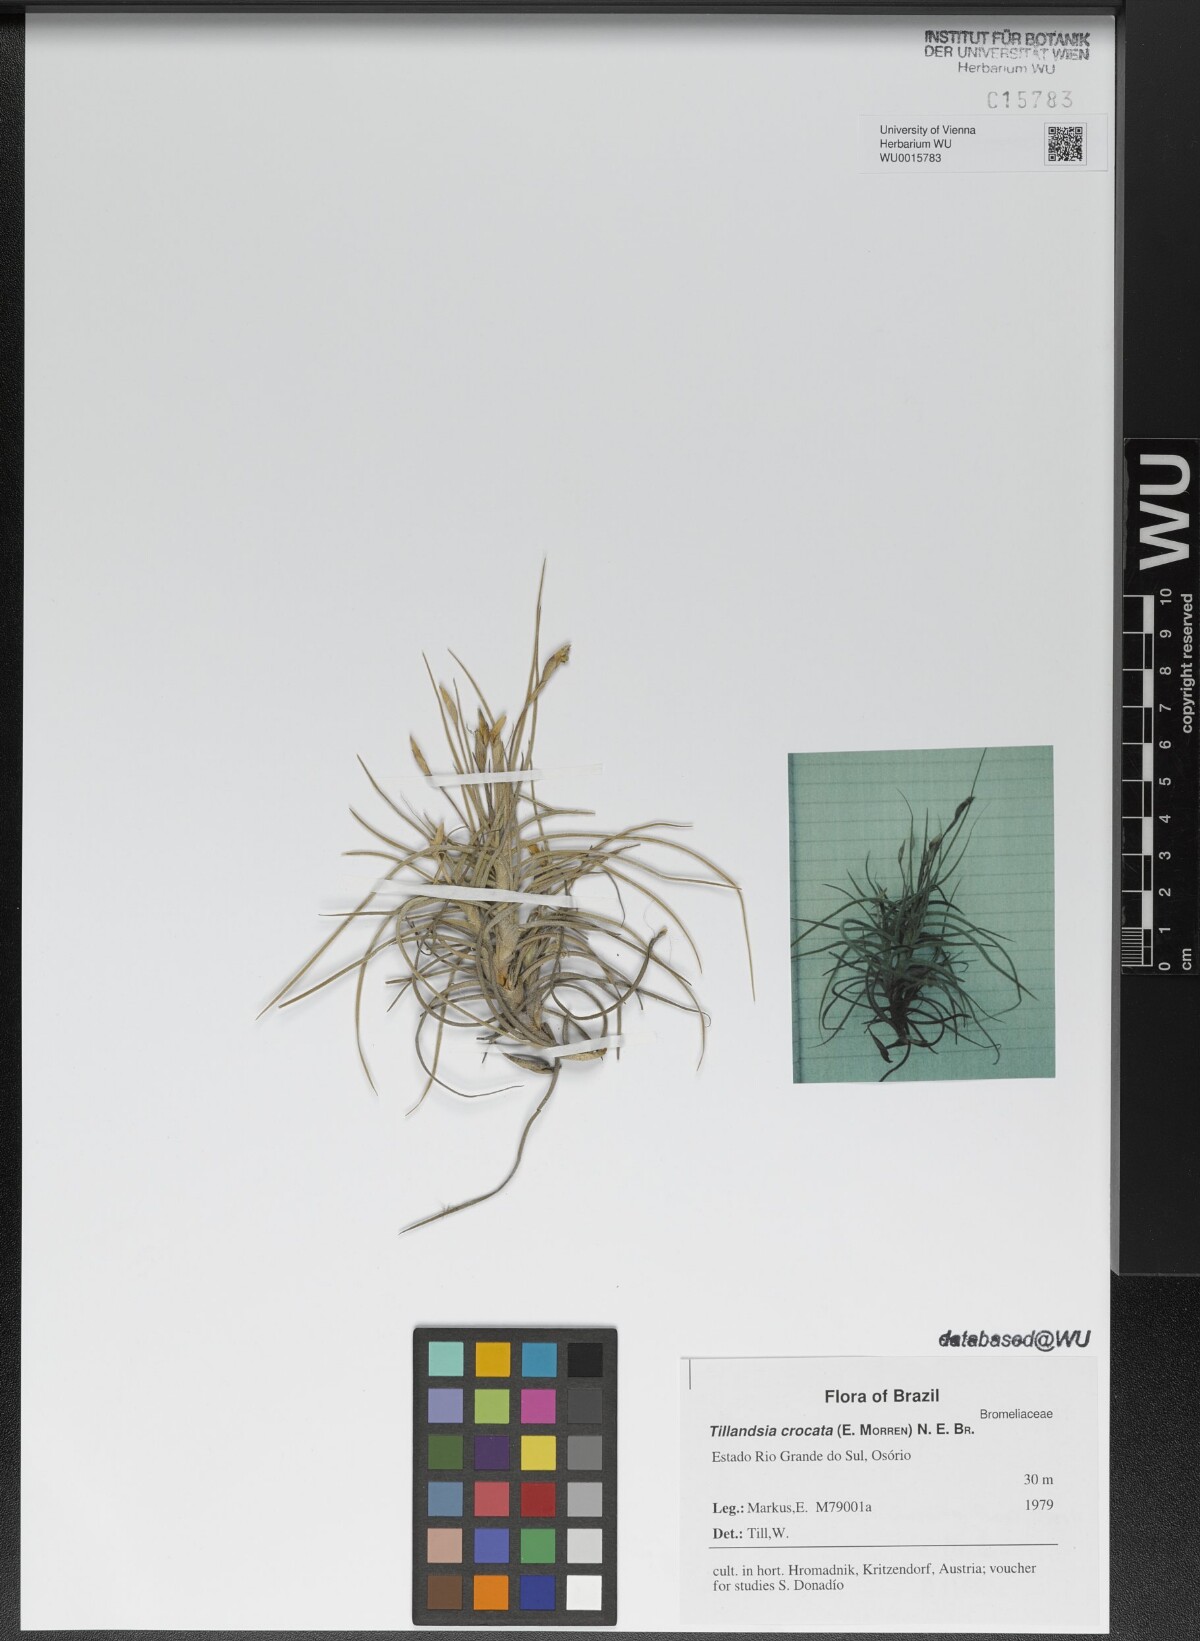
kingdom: Plantae
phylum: Tracheophyta
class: Liliopsida
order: Poales
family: Bromeliaceae
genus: Tillandsia
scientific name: Tillandsia crocata
